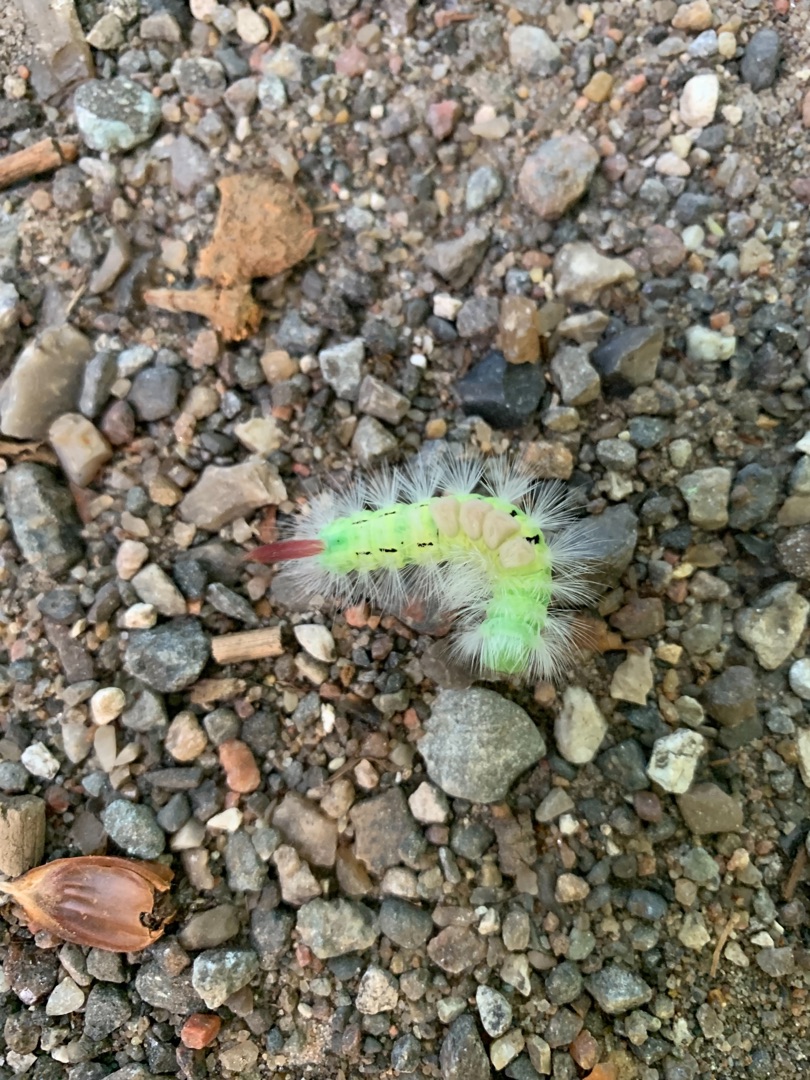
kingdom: Animalia
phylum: Arthropoda
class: Insecta
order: Lepidoptera
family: Erebidae
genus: Calliteara
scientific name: Calliteara pudibunda
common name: Bøgenonne
